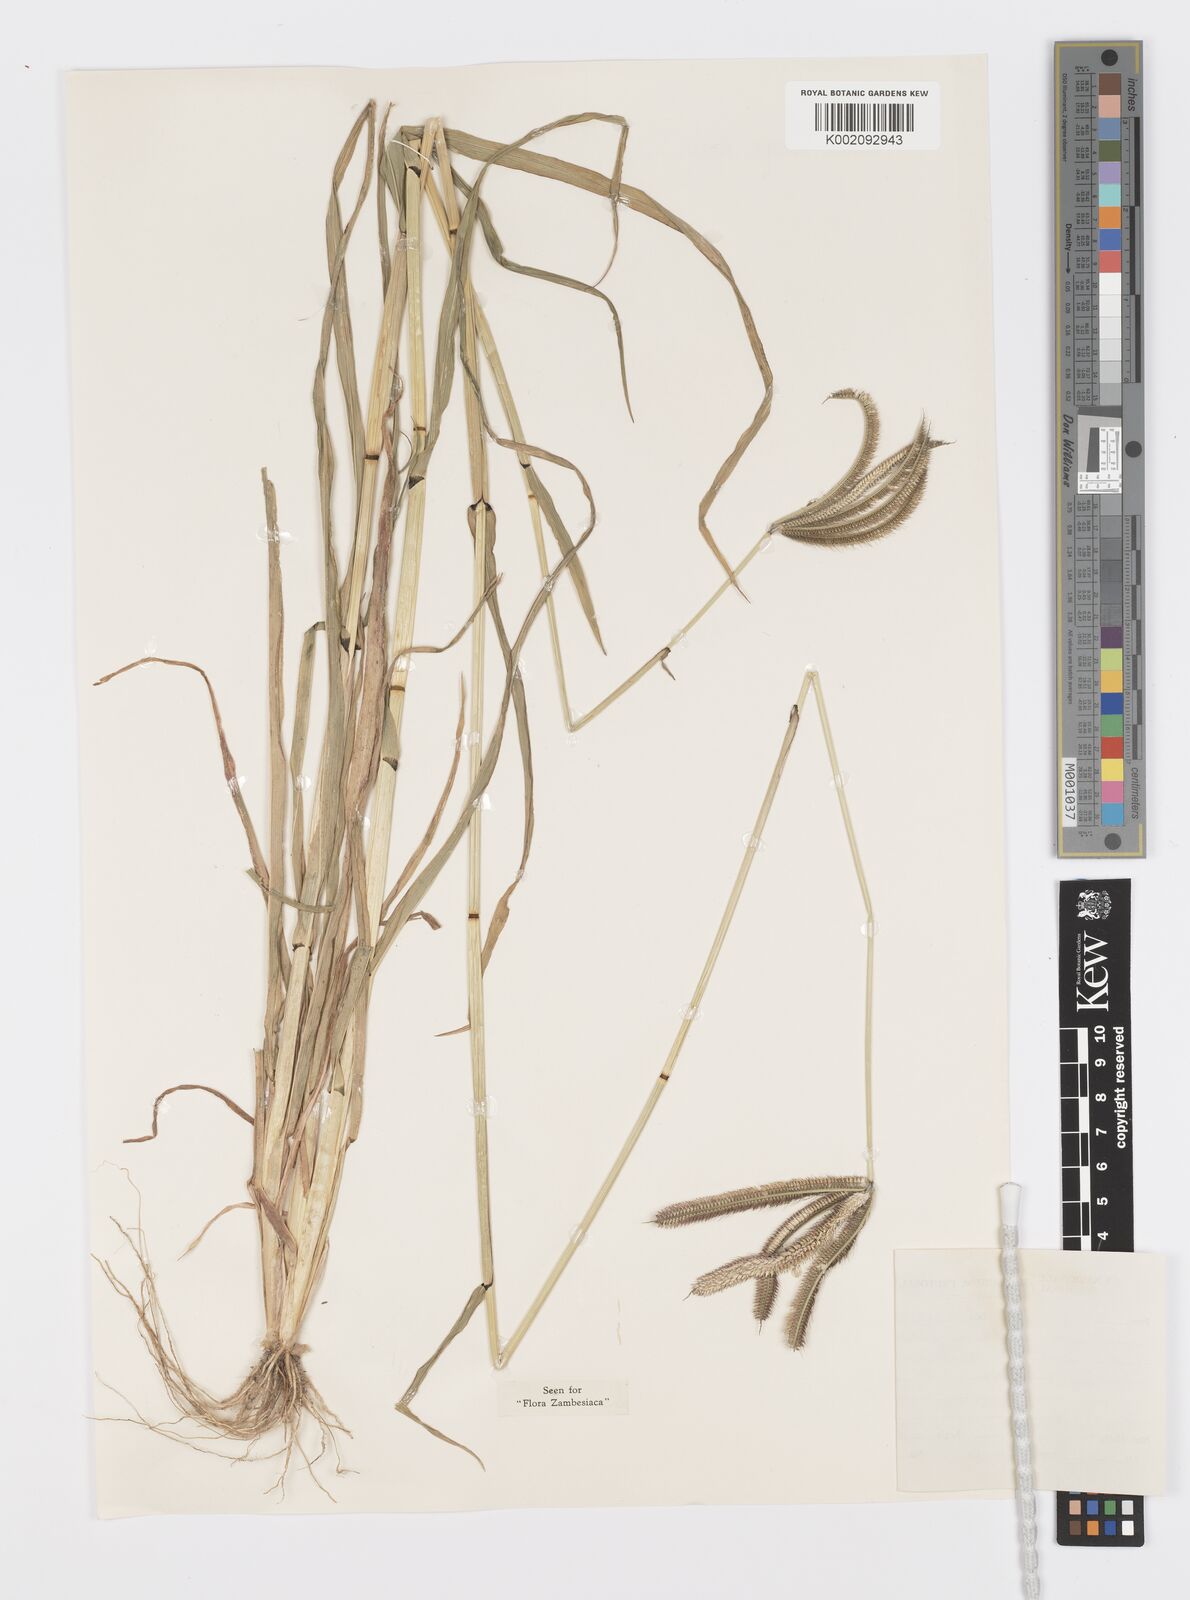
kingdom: Plantae
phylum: Tracheophyta
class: Liliopsida
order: Poales
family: Poaceae
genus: Dactyloctenium
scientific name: Dactyloctenium giganteum
